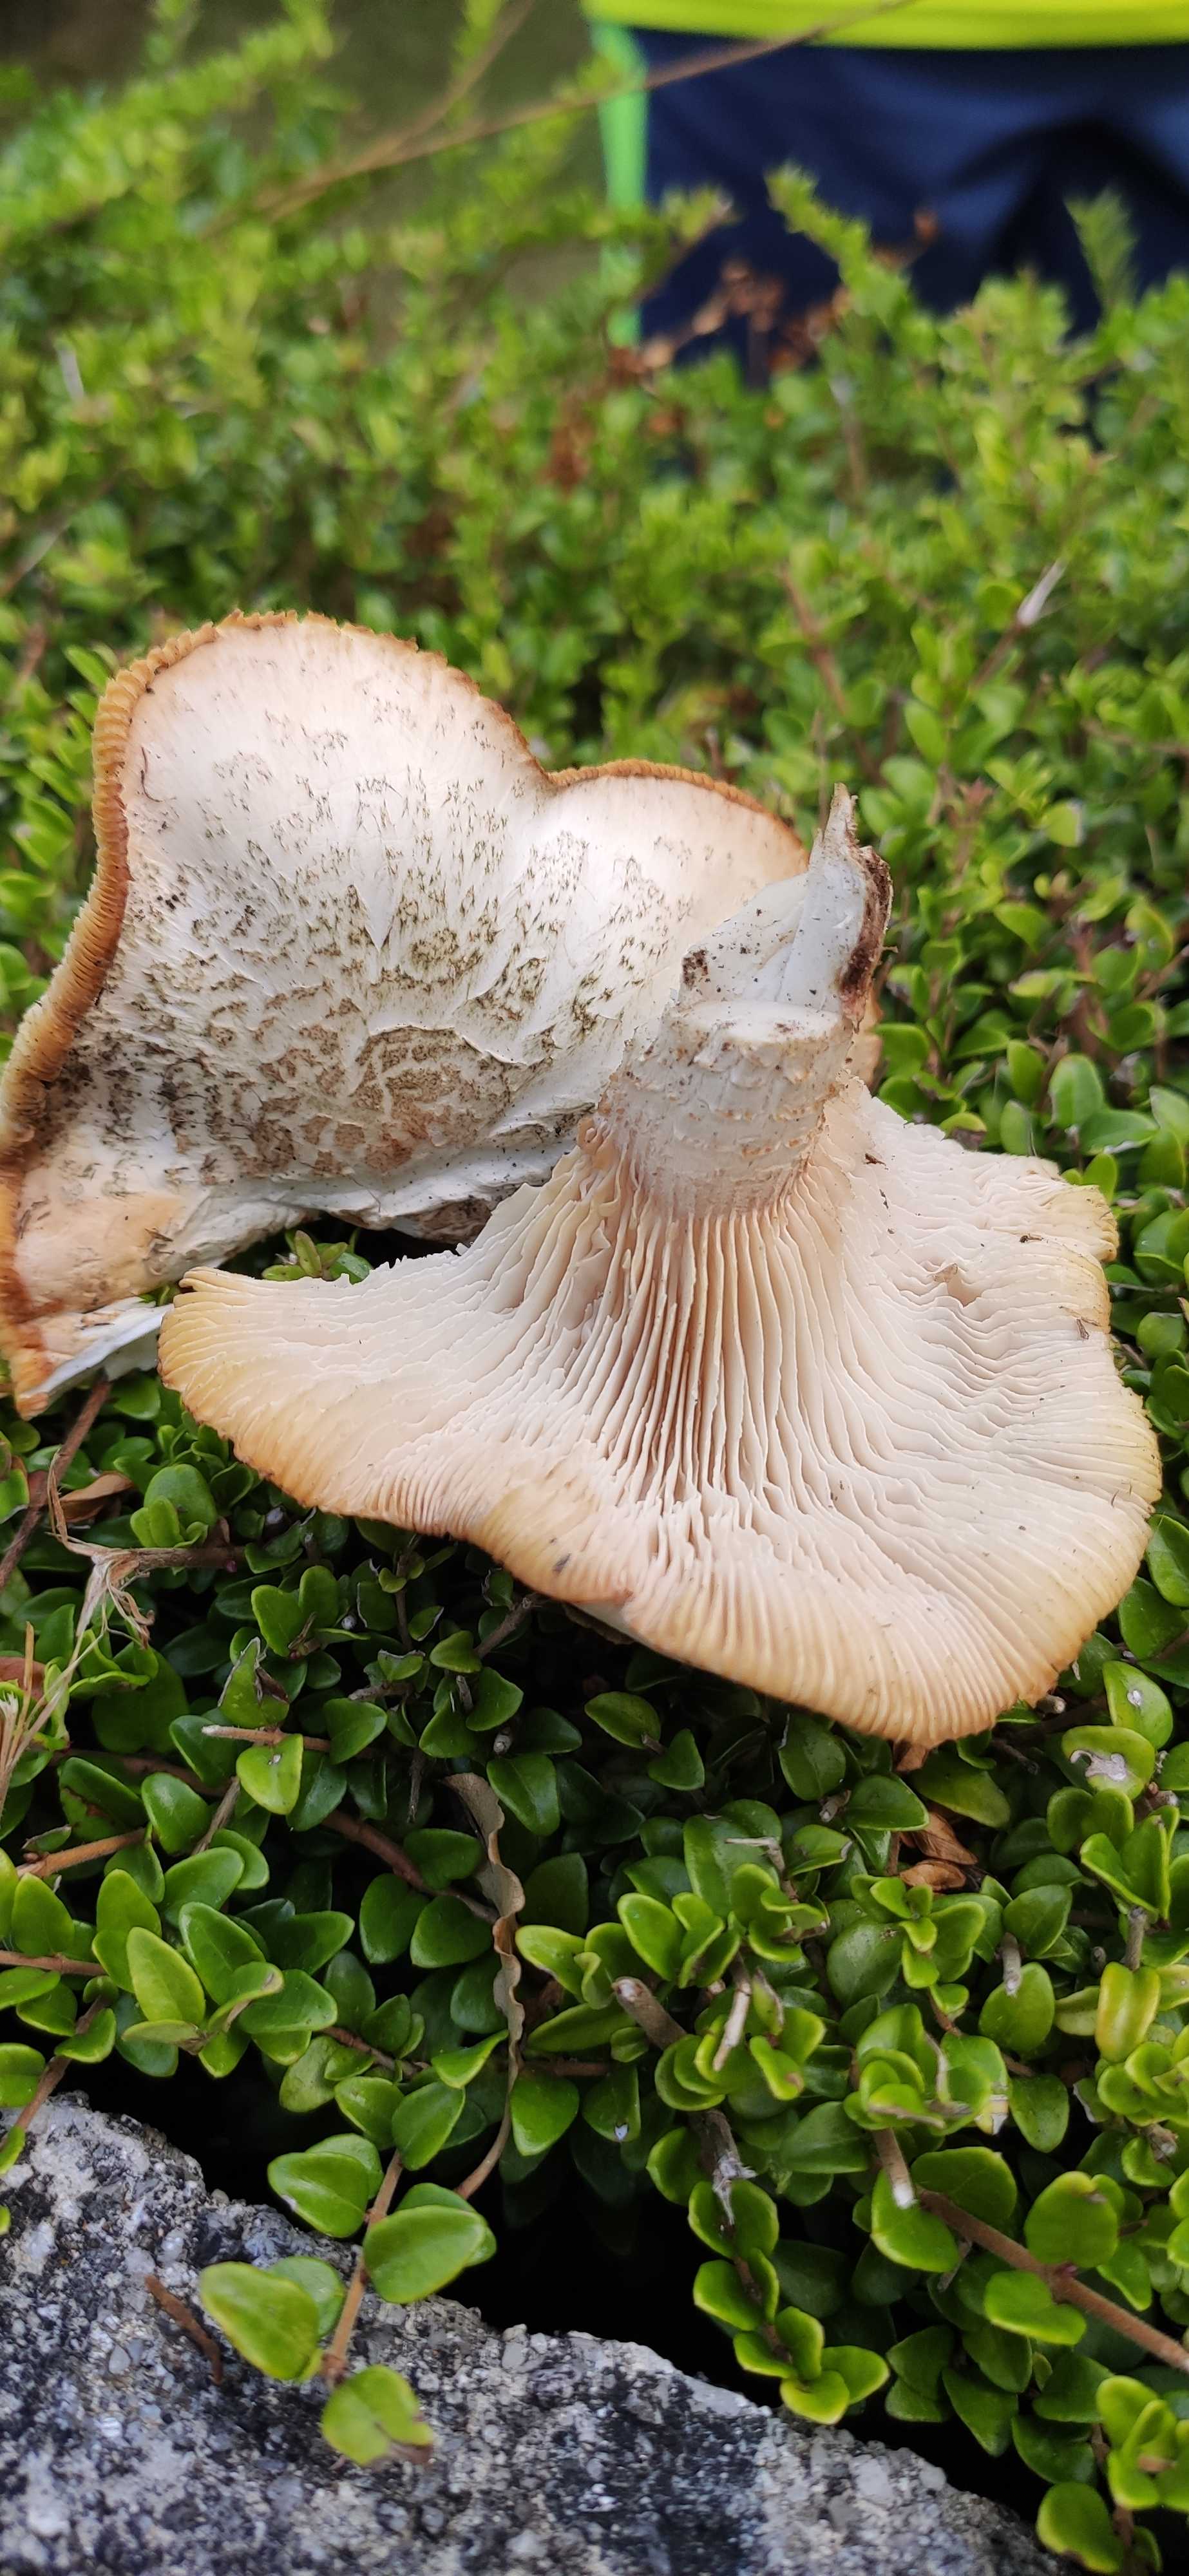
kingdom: Fungi
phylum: Basidiomycota
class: Agaricomycetes
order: Gloeophyllales
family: Gloeophyllaceae
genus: Neolentinus
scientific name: Neolentinus lepideus
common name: skællet sejhat
